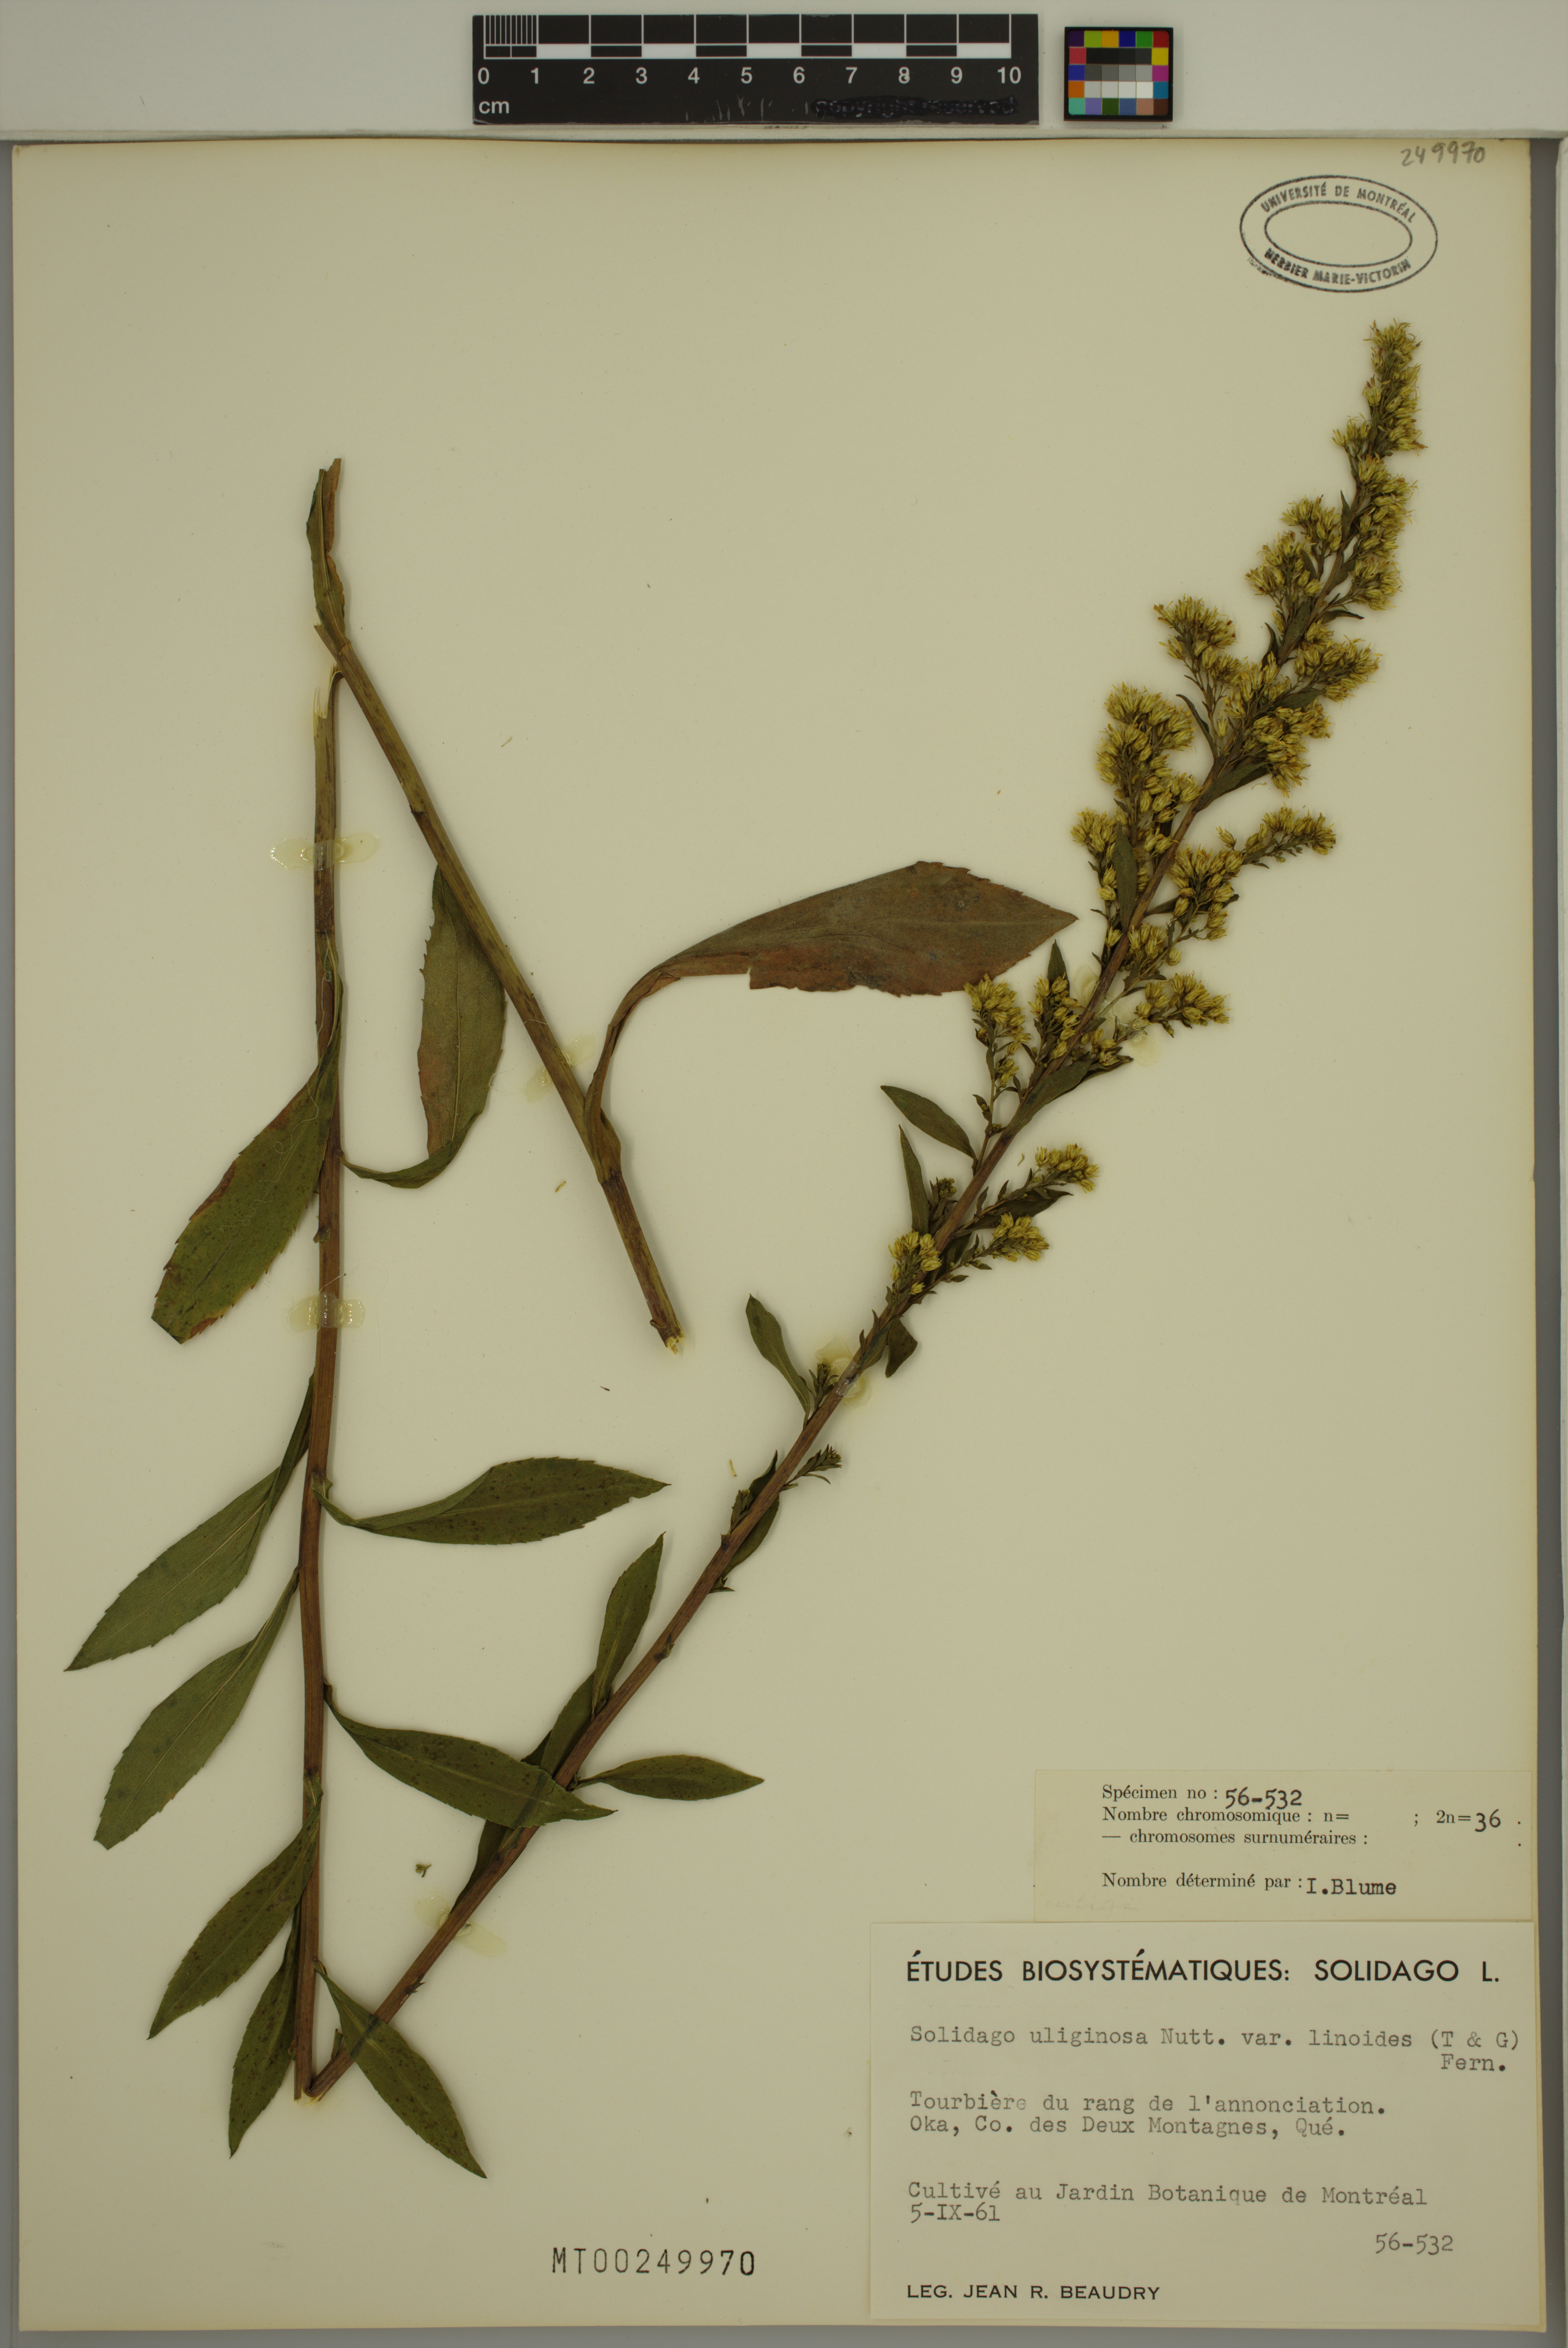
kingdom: Plantae
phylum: Tracheophyta
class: Magnoliopsida
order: Asterales
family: Asteraceae
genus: Solidago
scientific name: Solidago uliginosa
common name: Bog goldenrod
